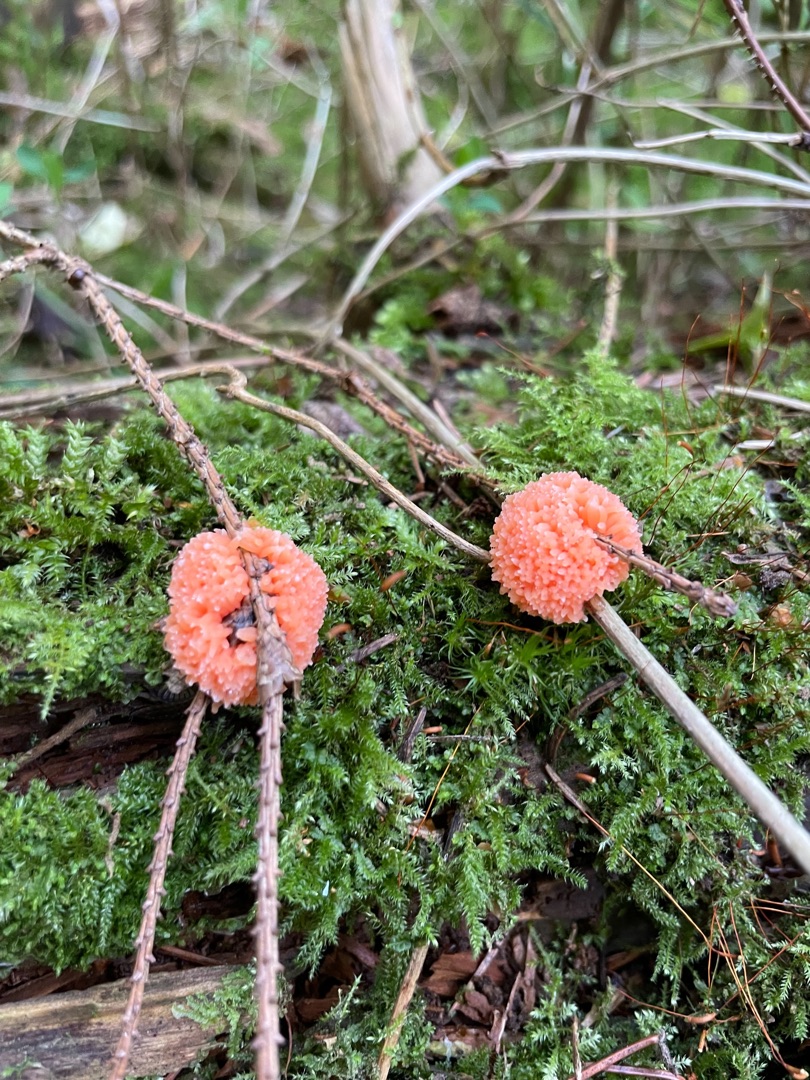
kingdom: Protozoa
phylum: Mycetozoa
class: Myxomycetes
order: Cribrariales
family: Tubiferaceae
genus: Tubifera
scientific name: Tubifera ferruginosa
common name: Kanel-støvrør
